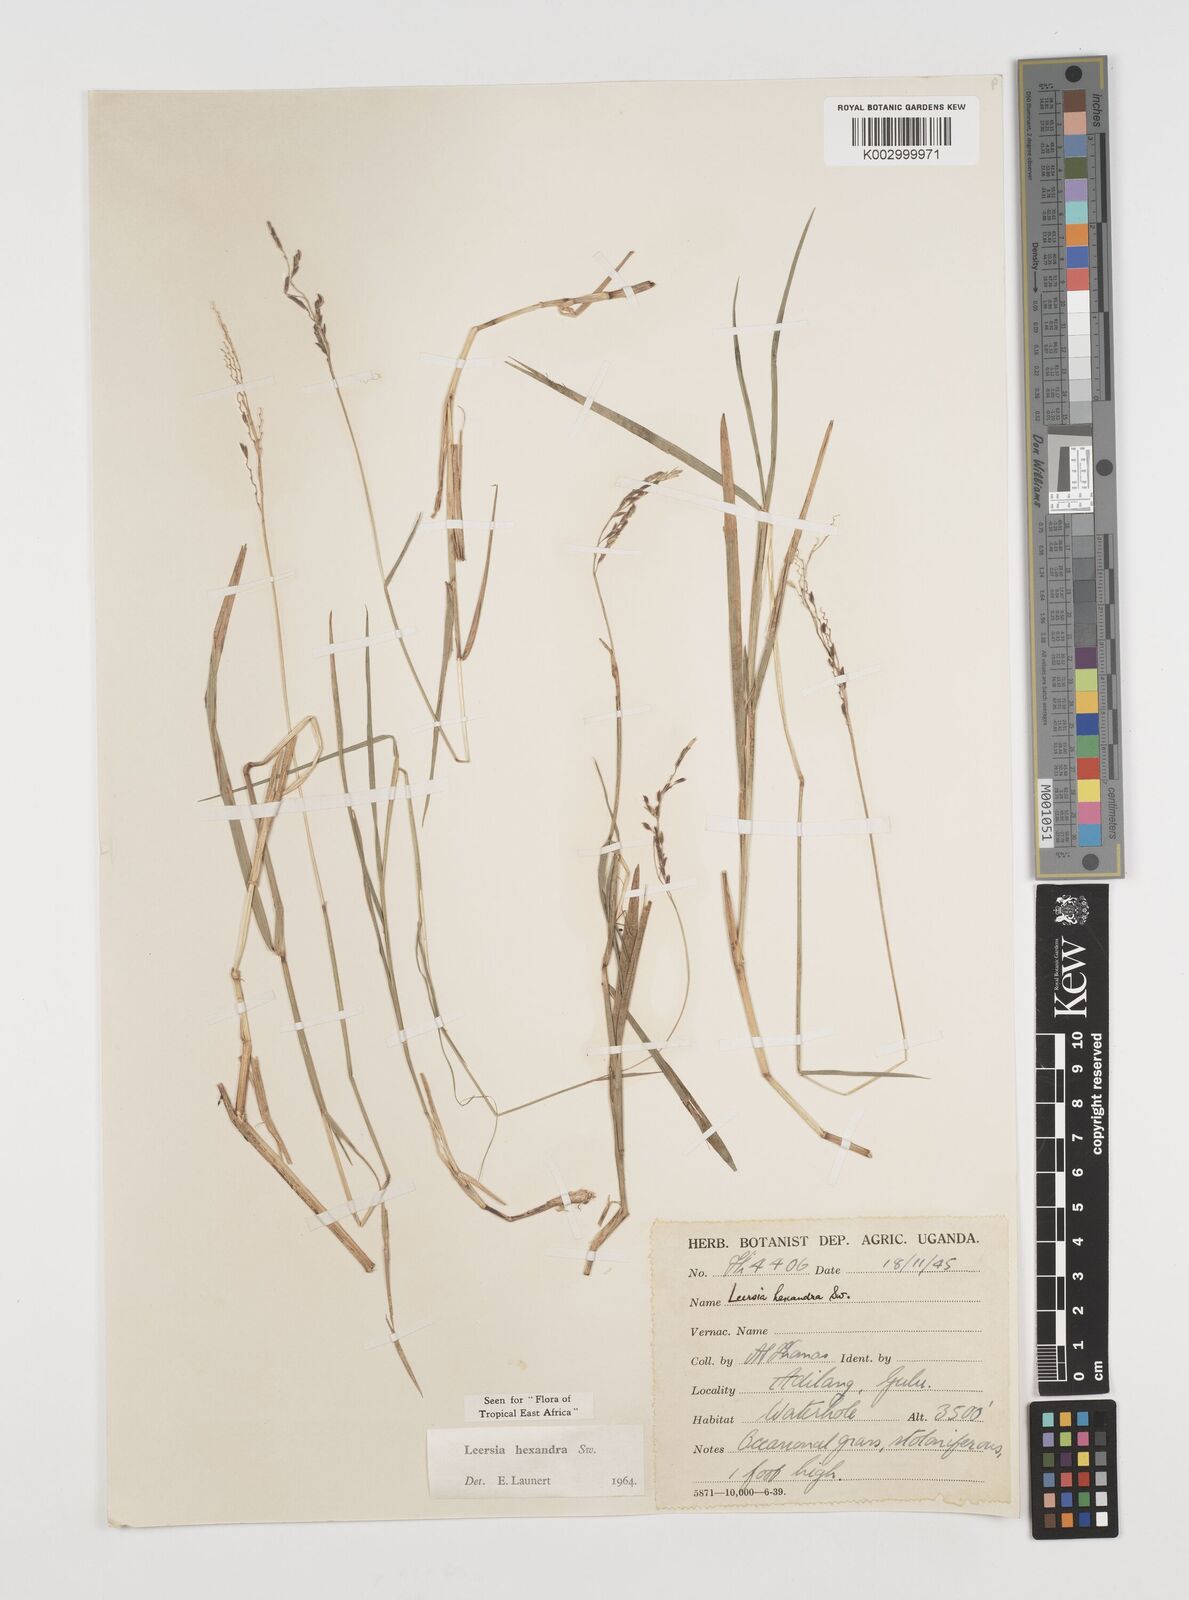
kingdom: Plantae
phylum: Tracheophyta
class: Liliopsida
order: Poales
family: Poaceae
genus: Leersia
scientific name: Leersia hexandra
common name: Southern cut grass
